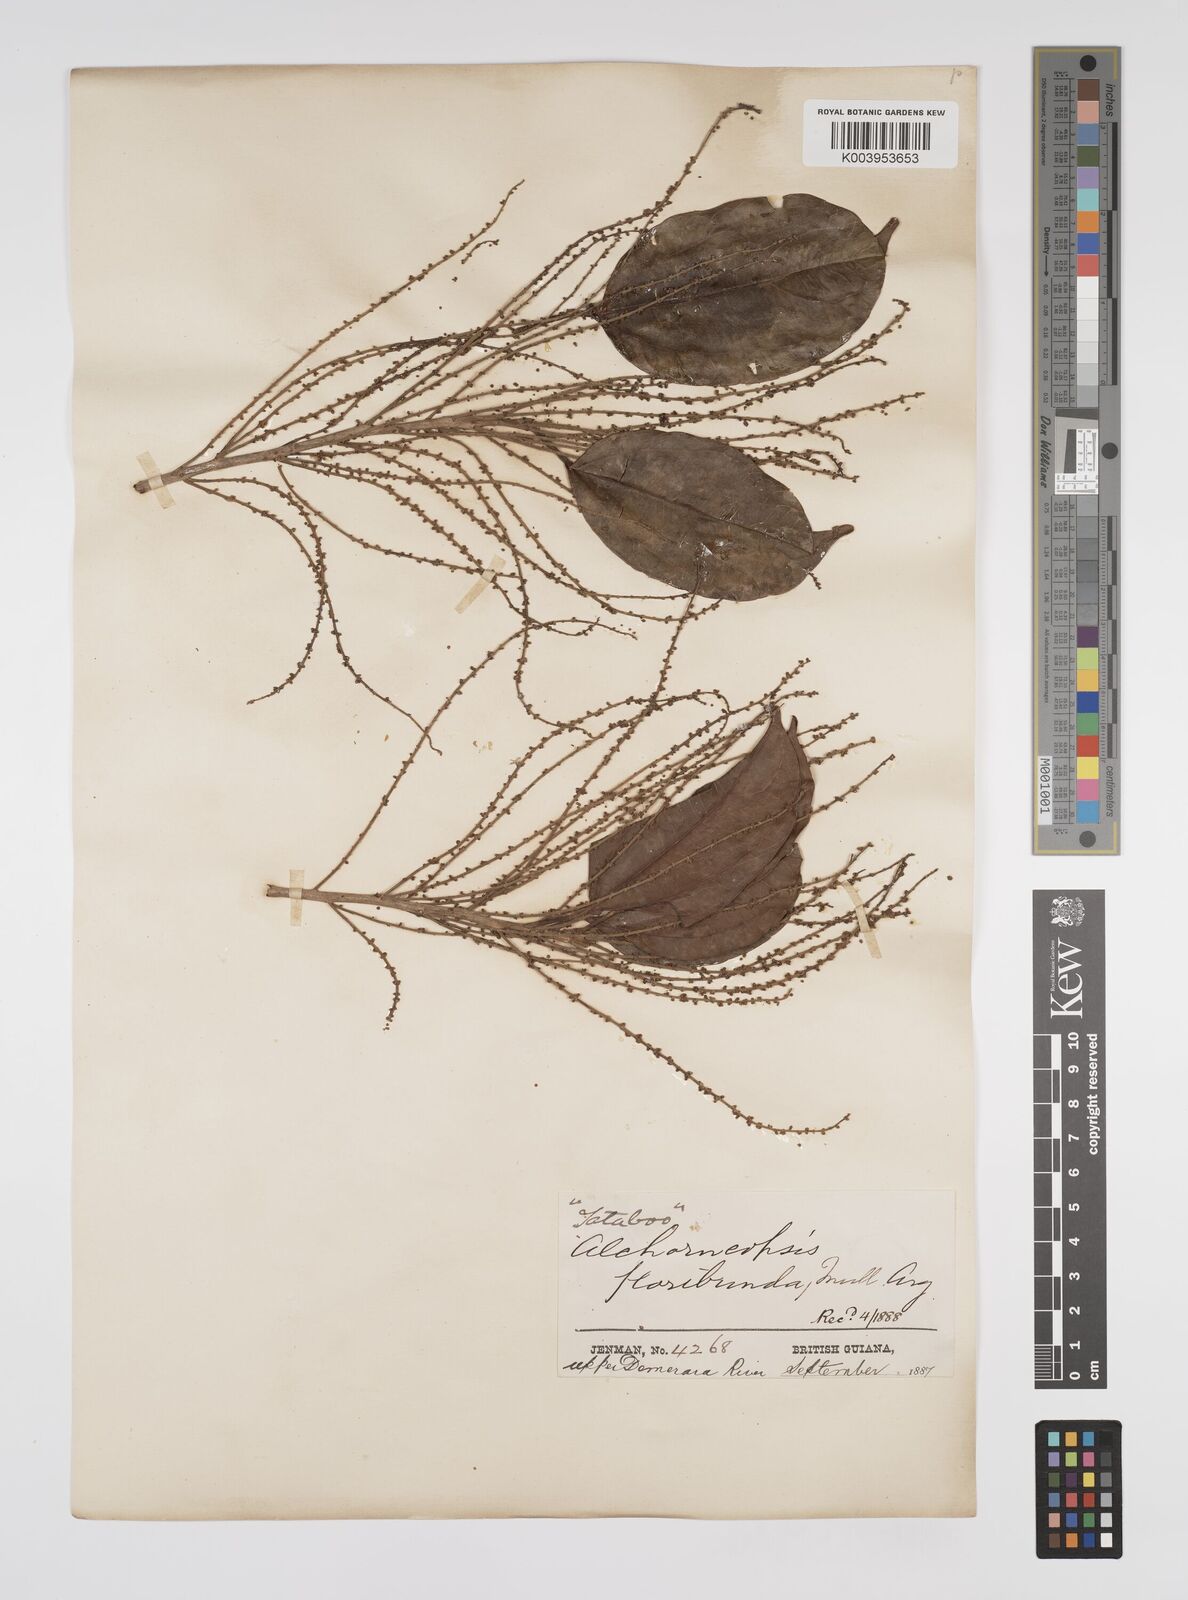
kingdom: Plantae
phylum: Tracheophyta
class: Magnoliopsida
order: Malpighiales
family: Euphorbiaceae
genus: Alchorneopsis
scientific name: Alchorneopsis floribunda
